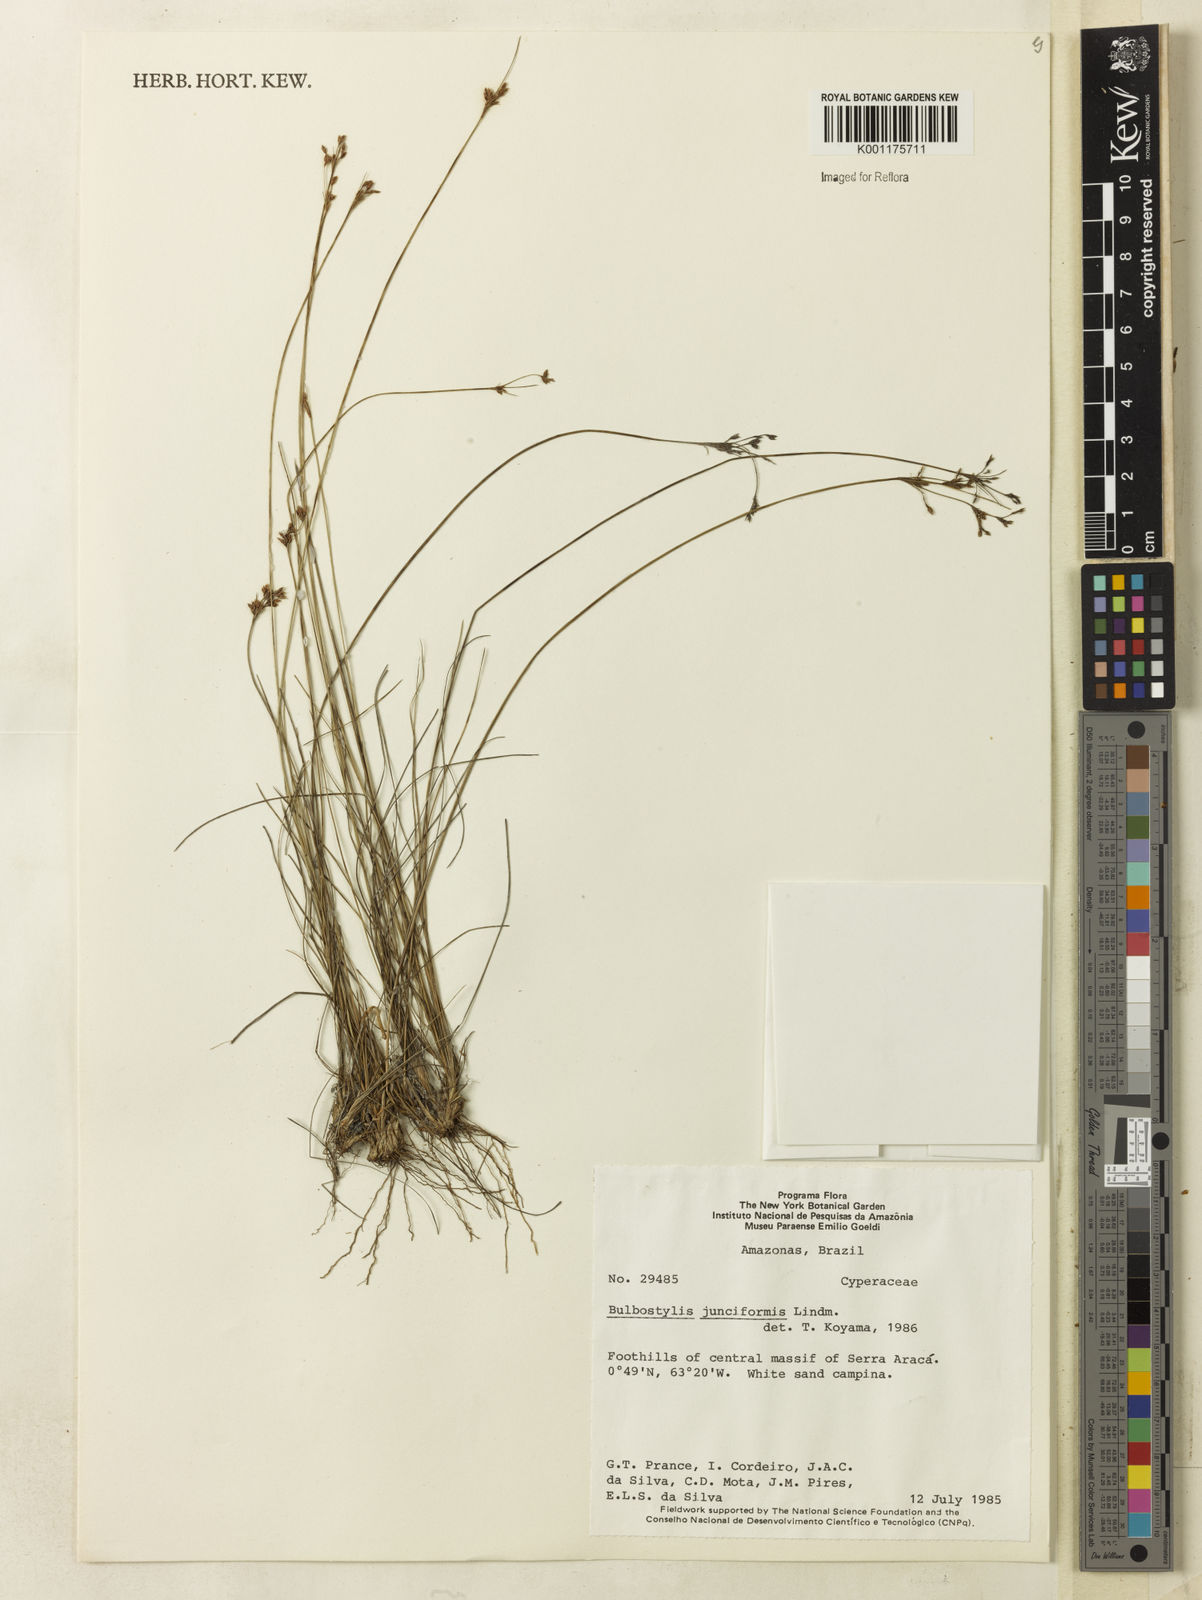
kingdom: Plantae
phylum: Tracheophyta
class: Liliopsida
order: Poales
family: Cyperaceae
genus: Bulbostylis
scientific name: Bulbostylis junciformis
